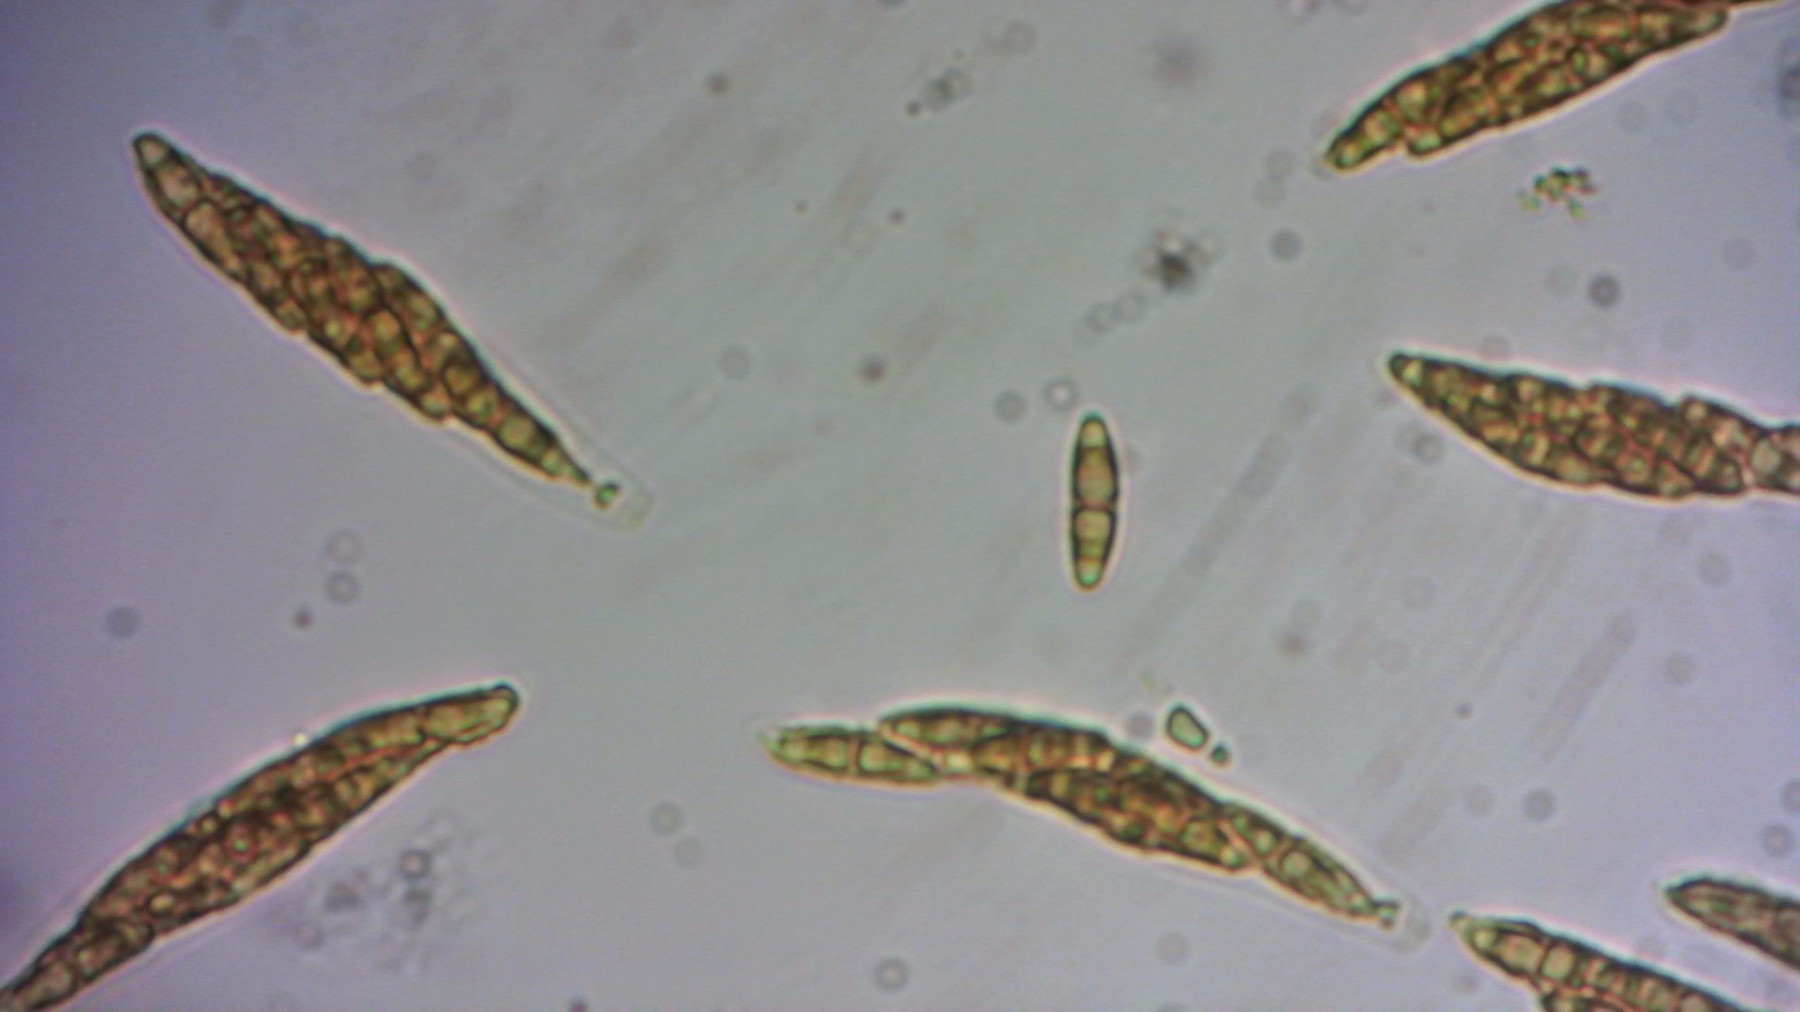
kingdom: Fungi
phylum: Ascomycota
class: Sordariomycetes
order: Diaporthales
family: Diaporthaceae
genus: Diaporthe
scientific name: Diaporthe eres
